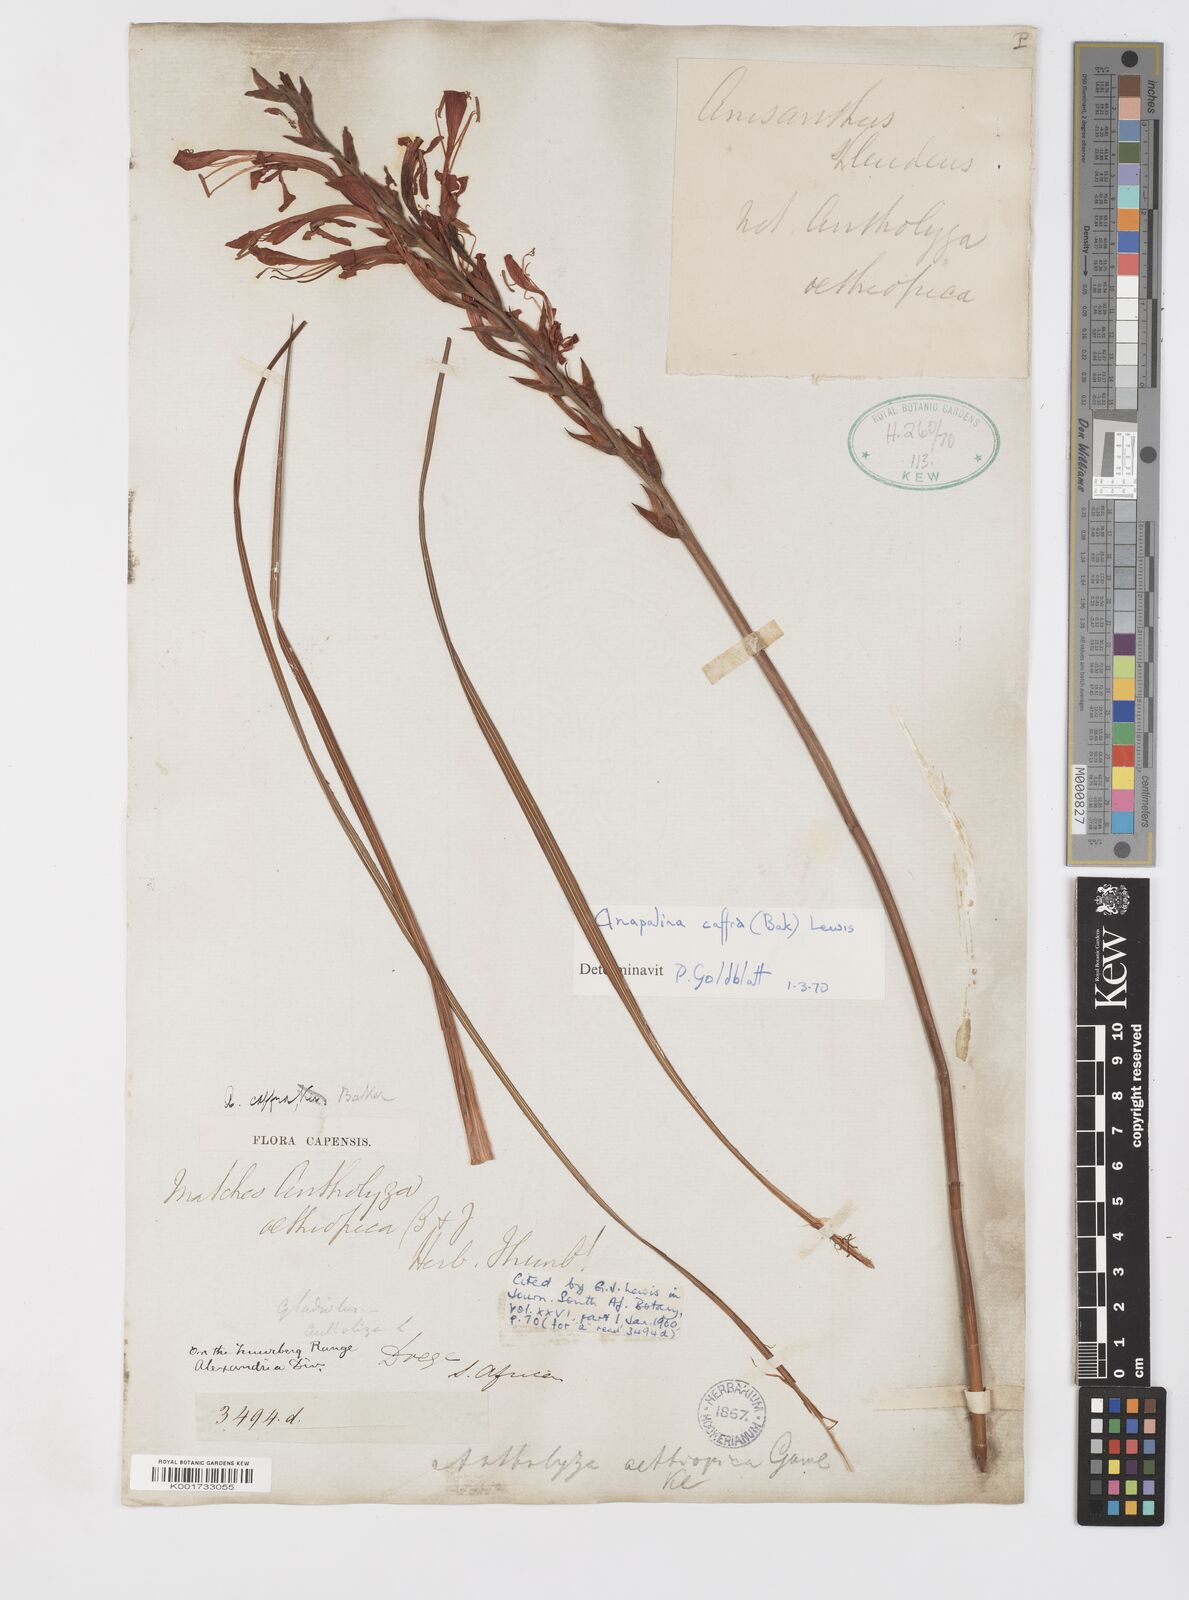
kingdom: Plantae
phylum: Tracheophyta
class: Liliopsida
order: Asparagales
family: Iridaceae
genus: Tritoniopsis
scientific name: Tritoniopsis caffra
